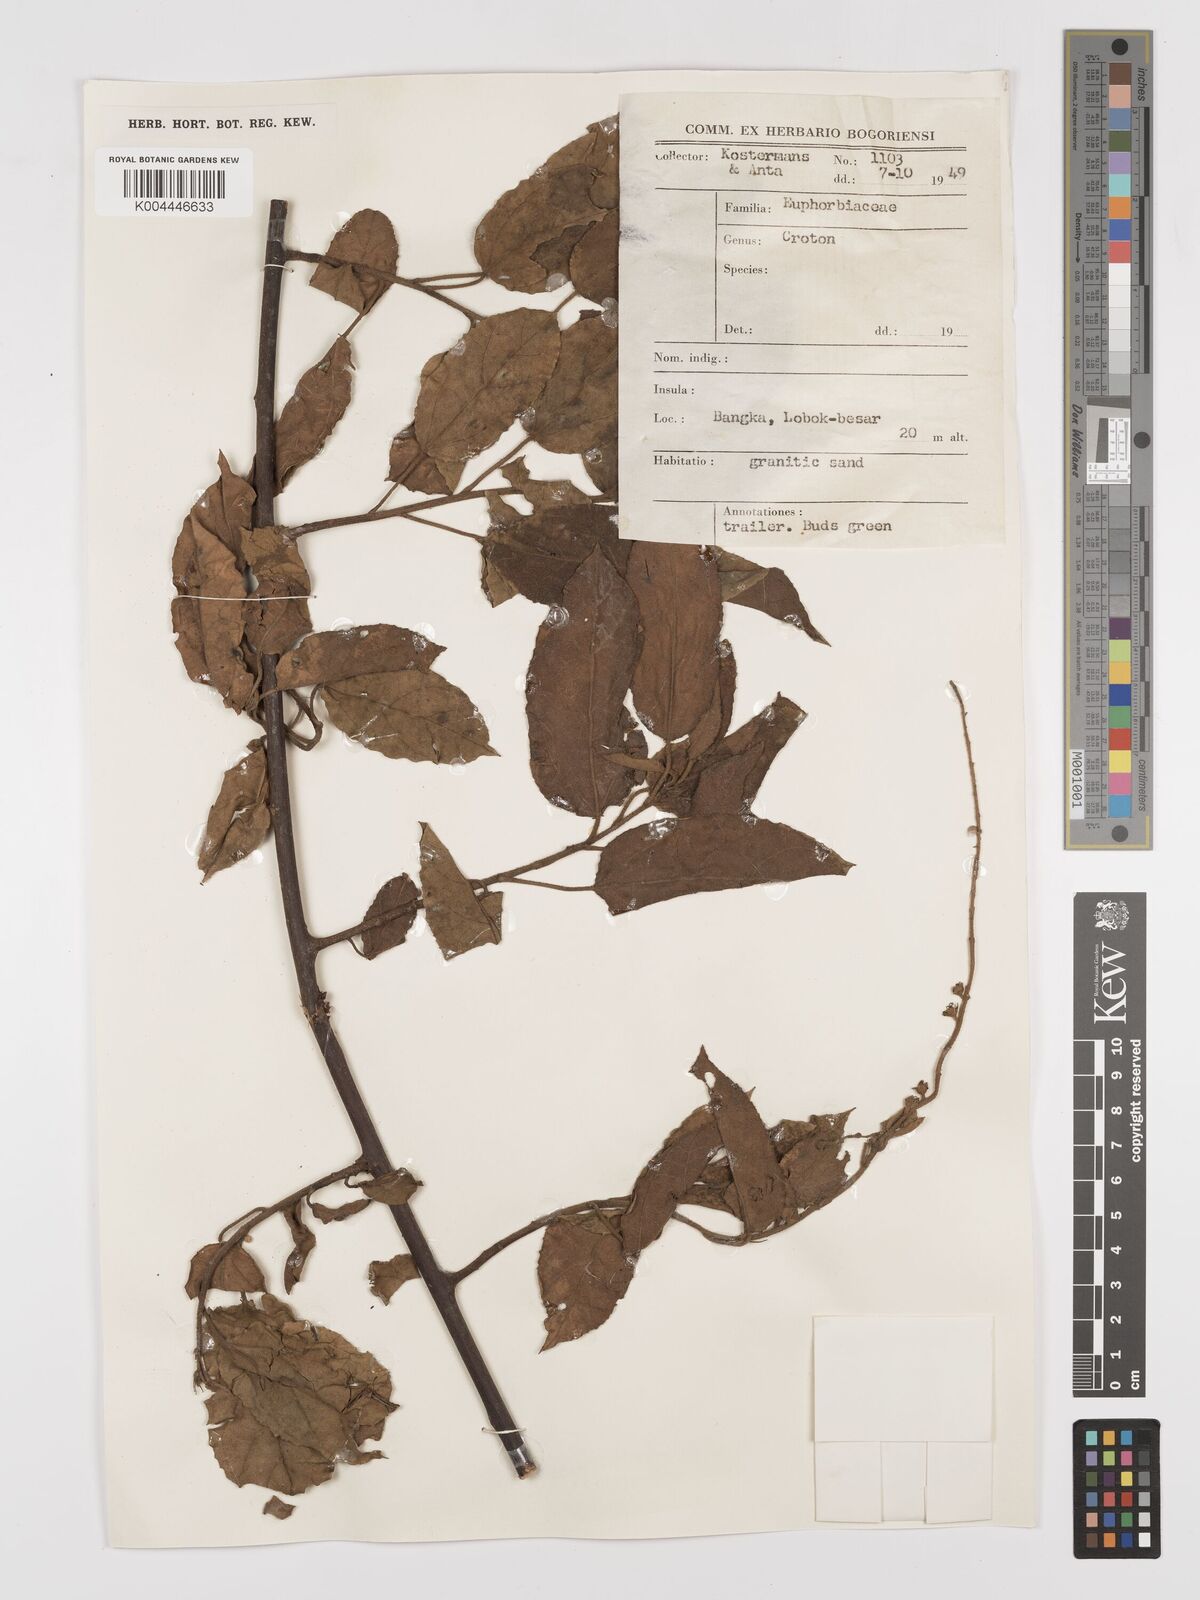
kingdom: Plantae
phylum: Tracheophyta
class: Magnoliopsida
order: Malpighiales
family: Euphorbiaceae
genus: Croton
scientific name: Croton caudatus
